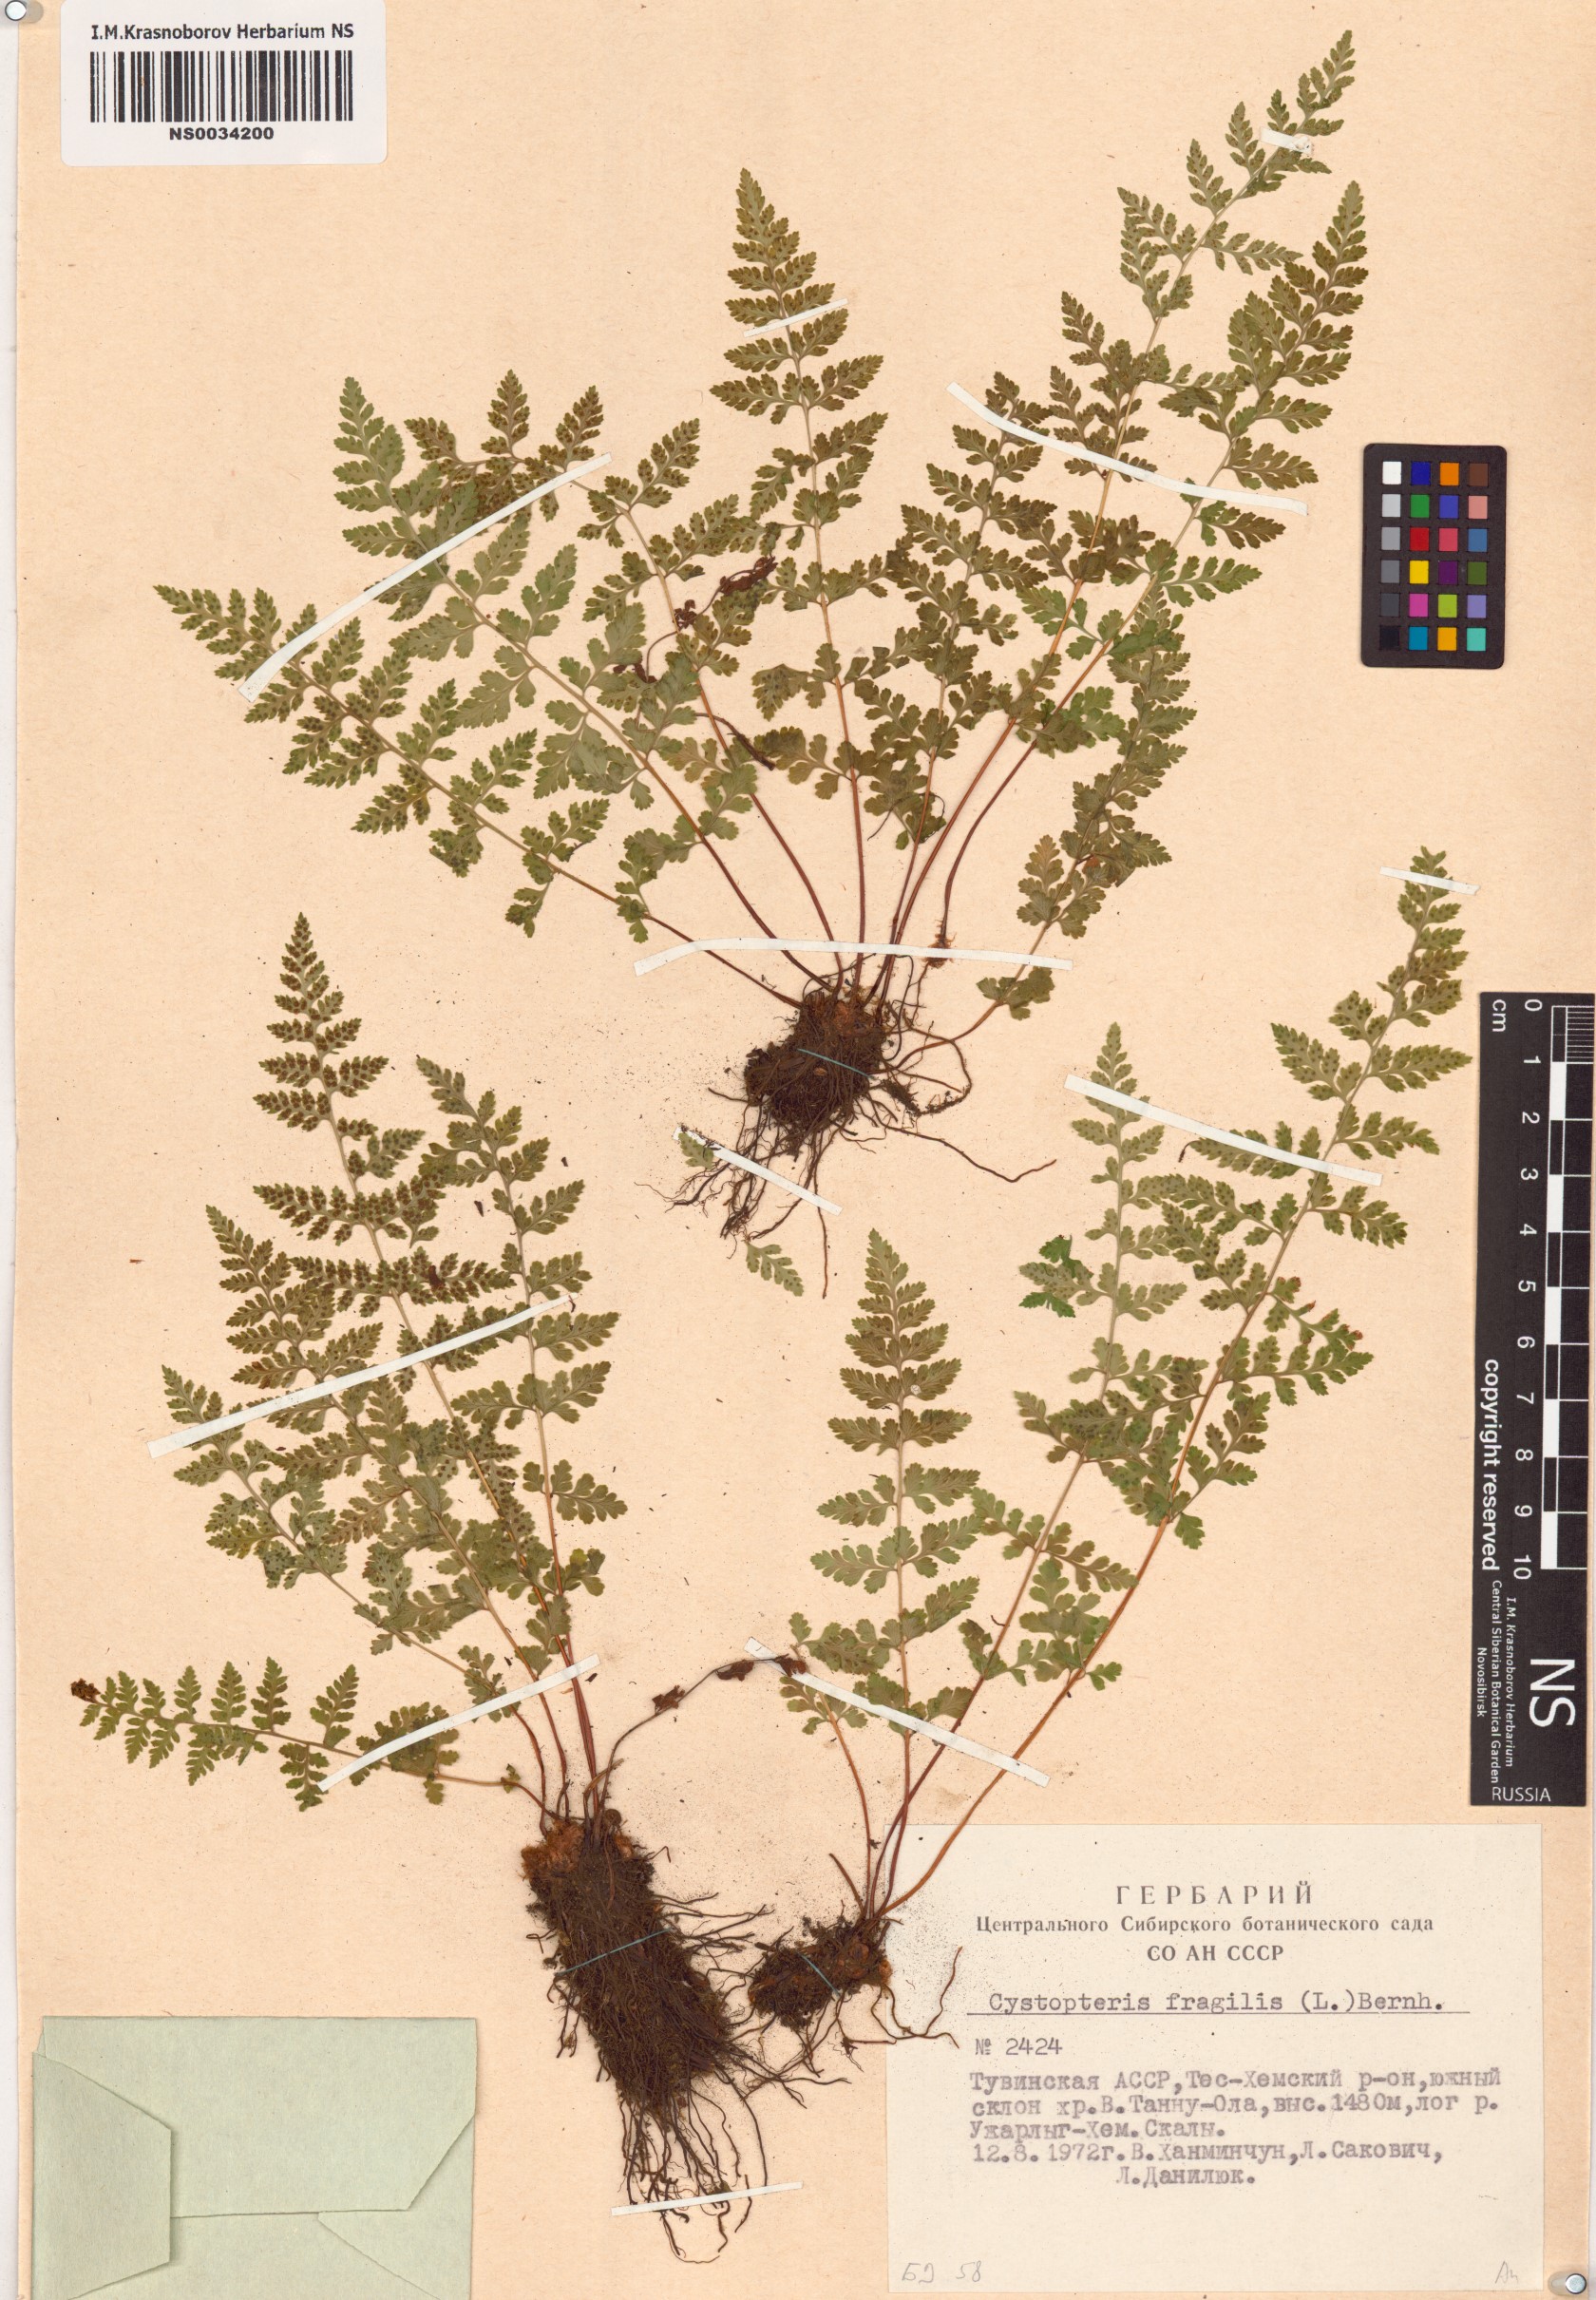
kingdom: Plantae
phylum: Tracheophyta
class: Polypodiopsida
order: Polypodiales
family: Cystopteridaceae
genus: Cystopteris
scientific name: Cystopteris fragilis
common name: Brittle bladder fern
